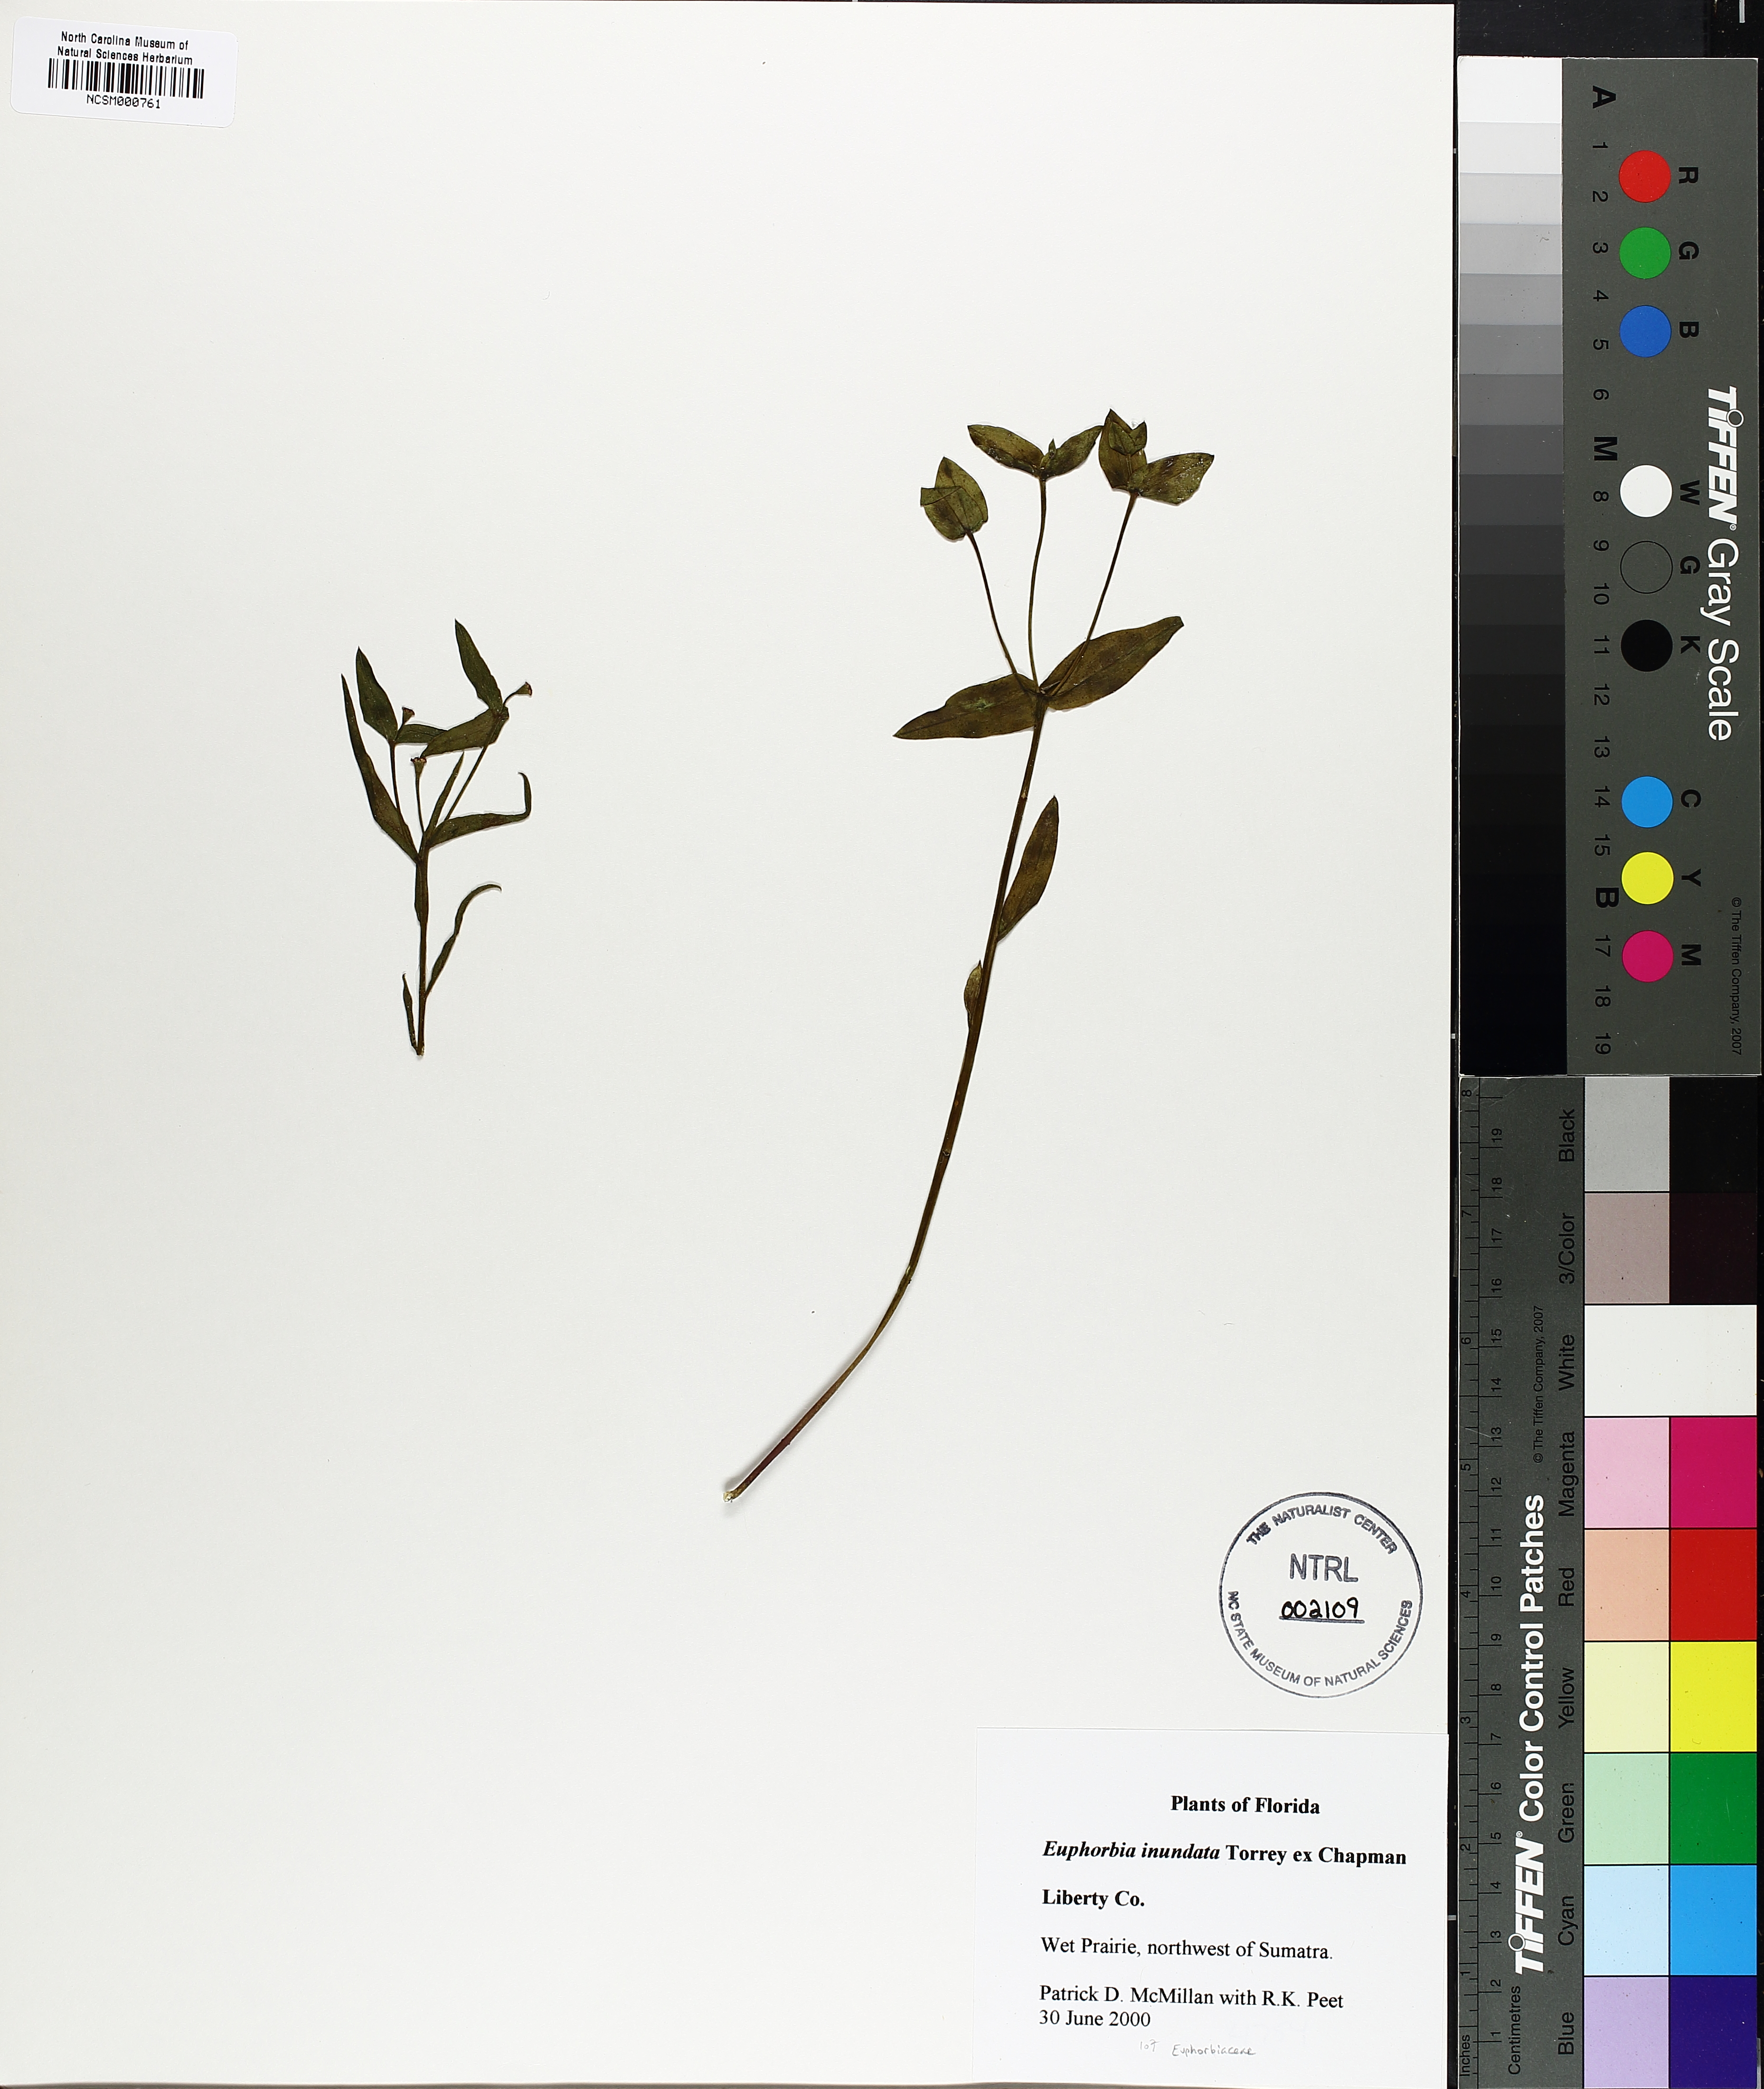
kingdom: Plantae
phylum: Tracheophyta
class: Magnoliopsida
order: Malpighiales
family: Euphorbiaceae
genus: Euphorbia
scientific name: Euphorbia inundata
